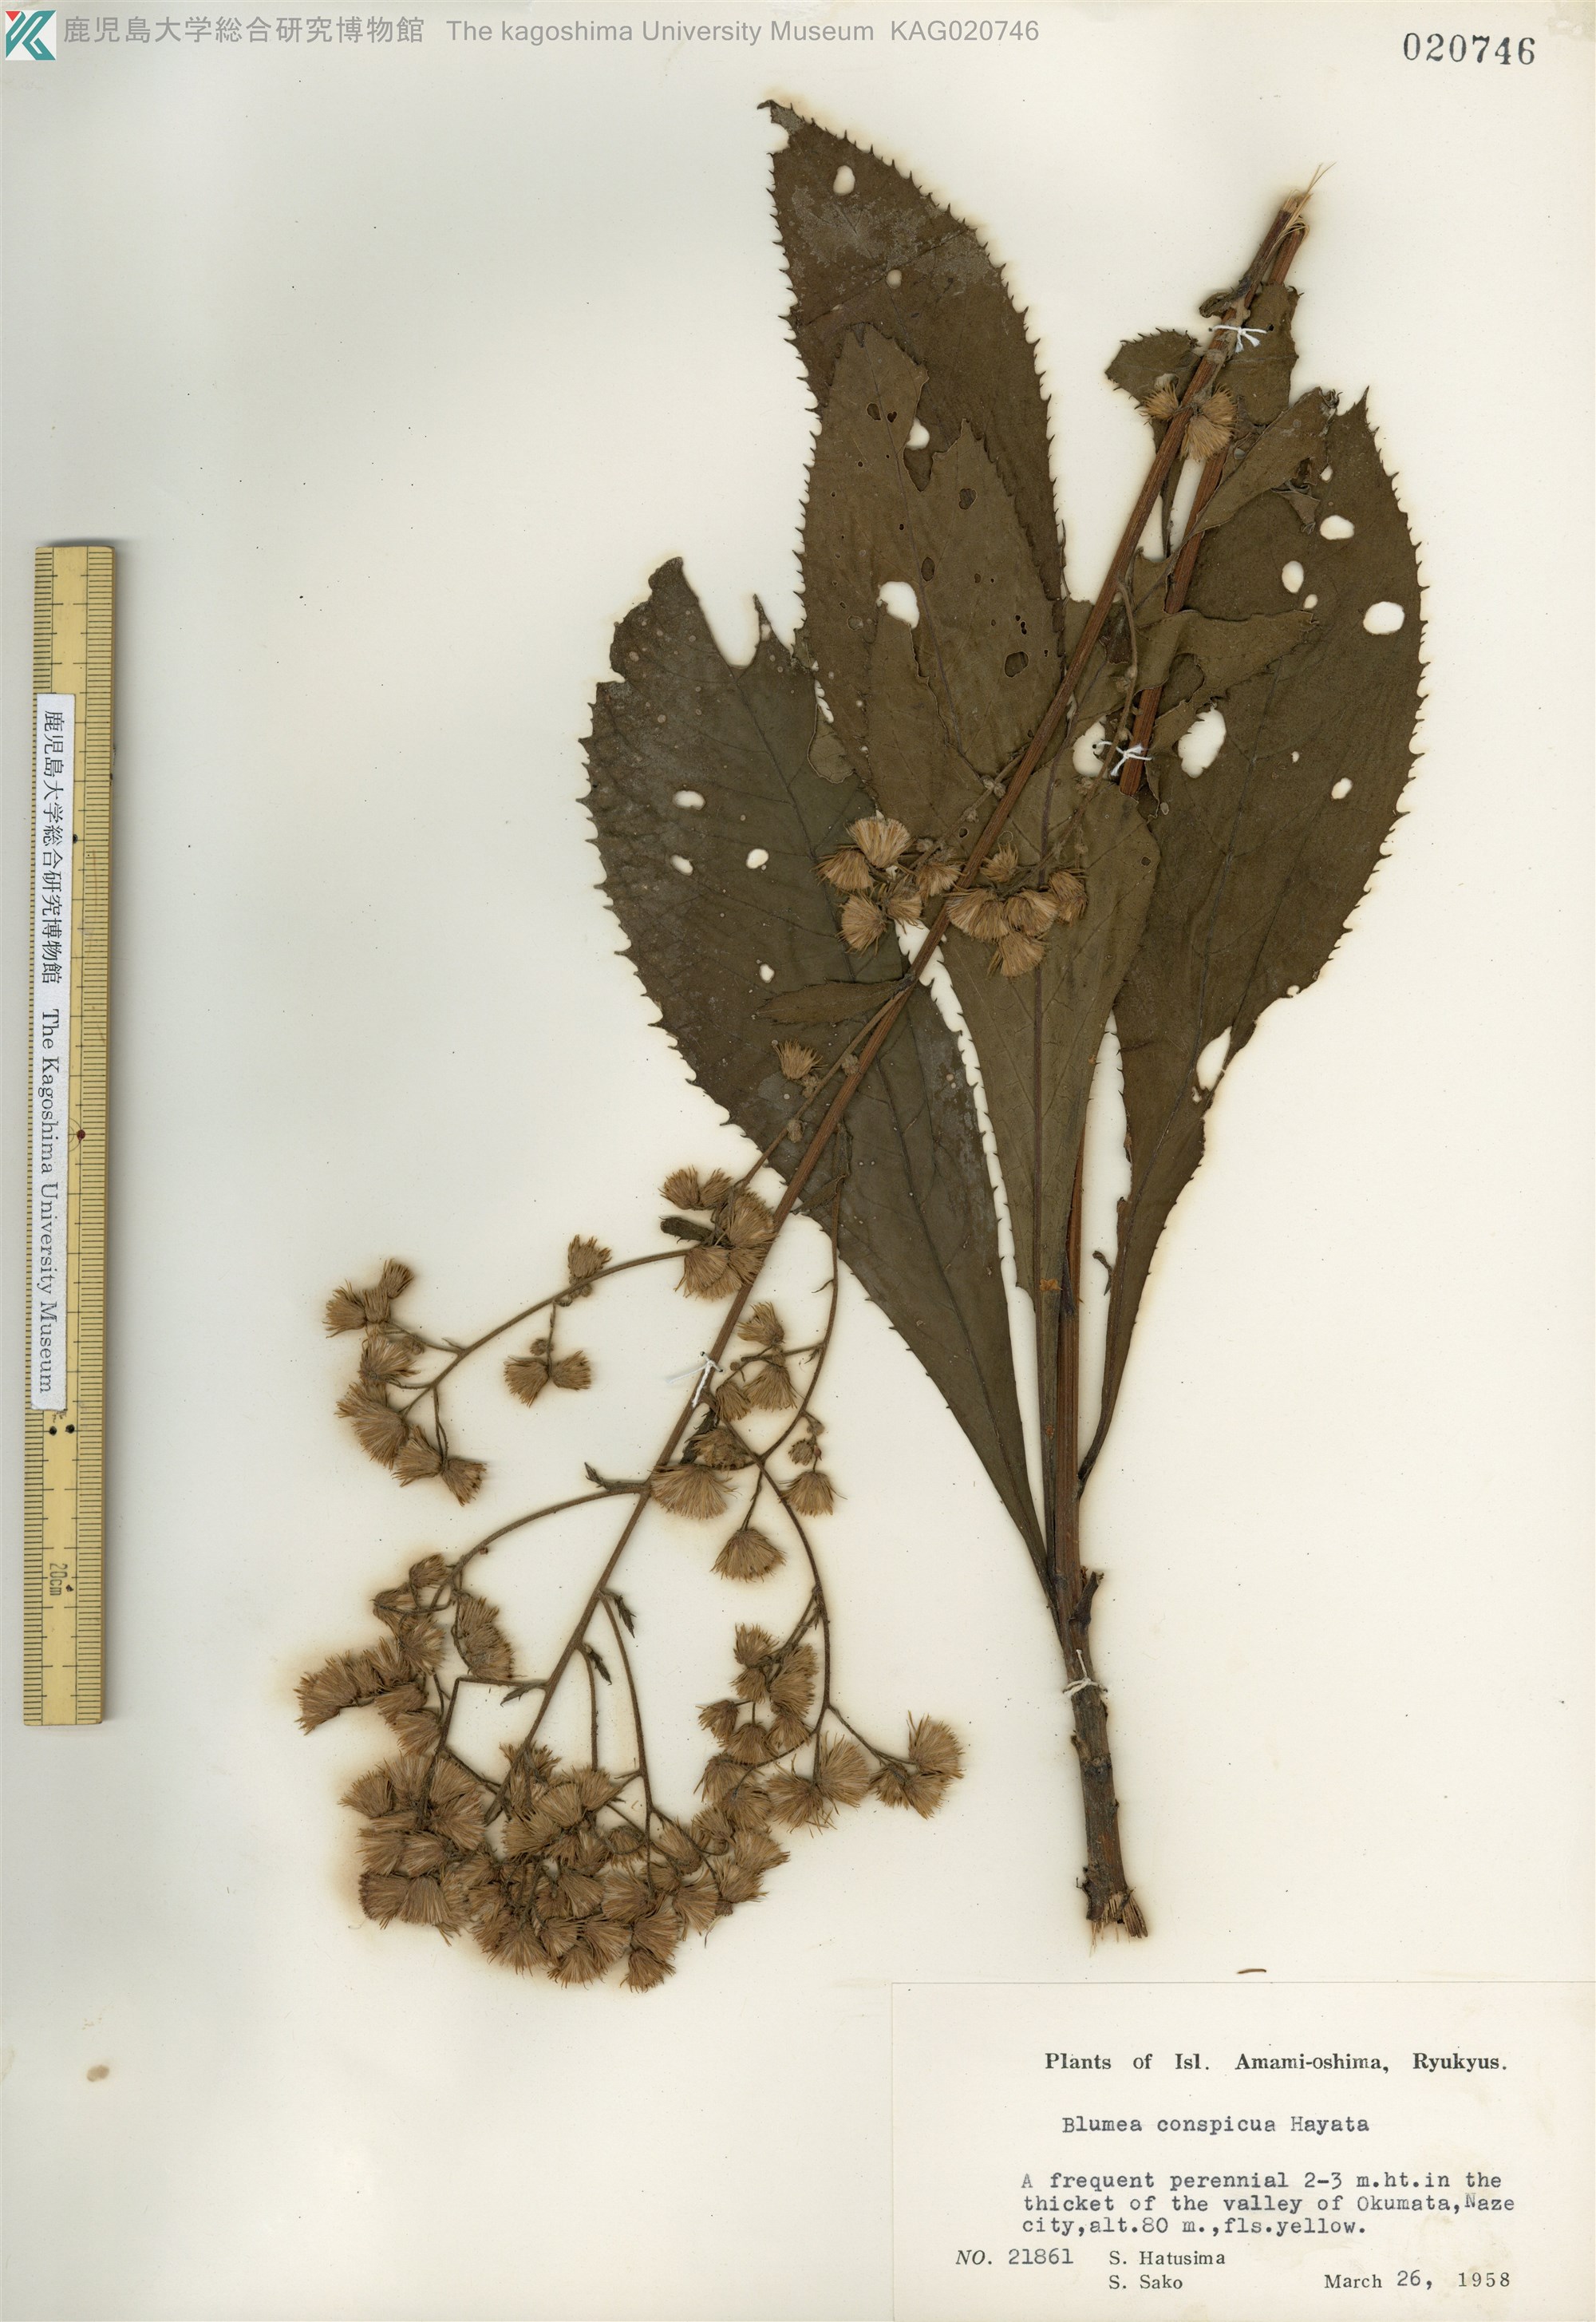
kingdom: Plantae
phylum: Tracheophyta
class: Magnoliopsida
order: Asterales
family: Asteraceae
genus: Blumea
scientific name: Blumea conspicua
